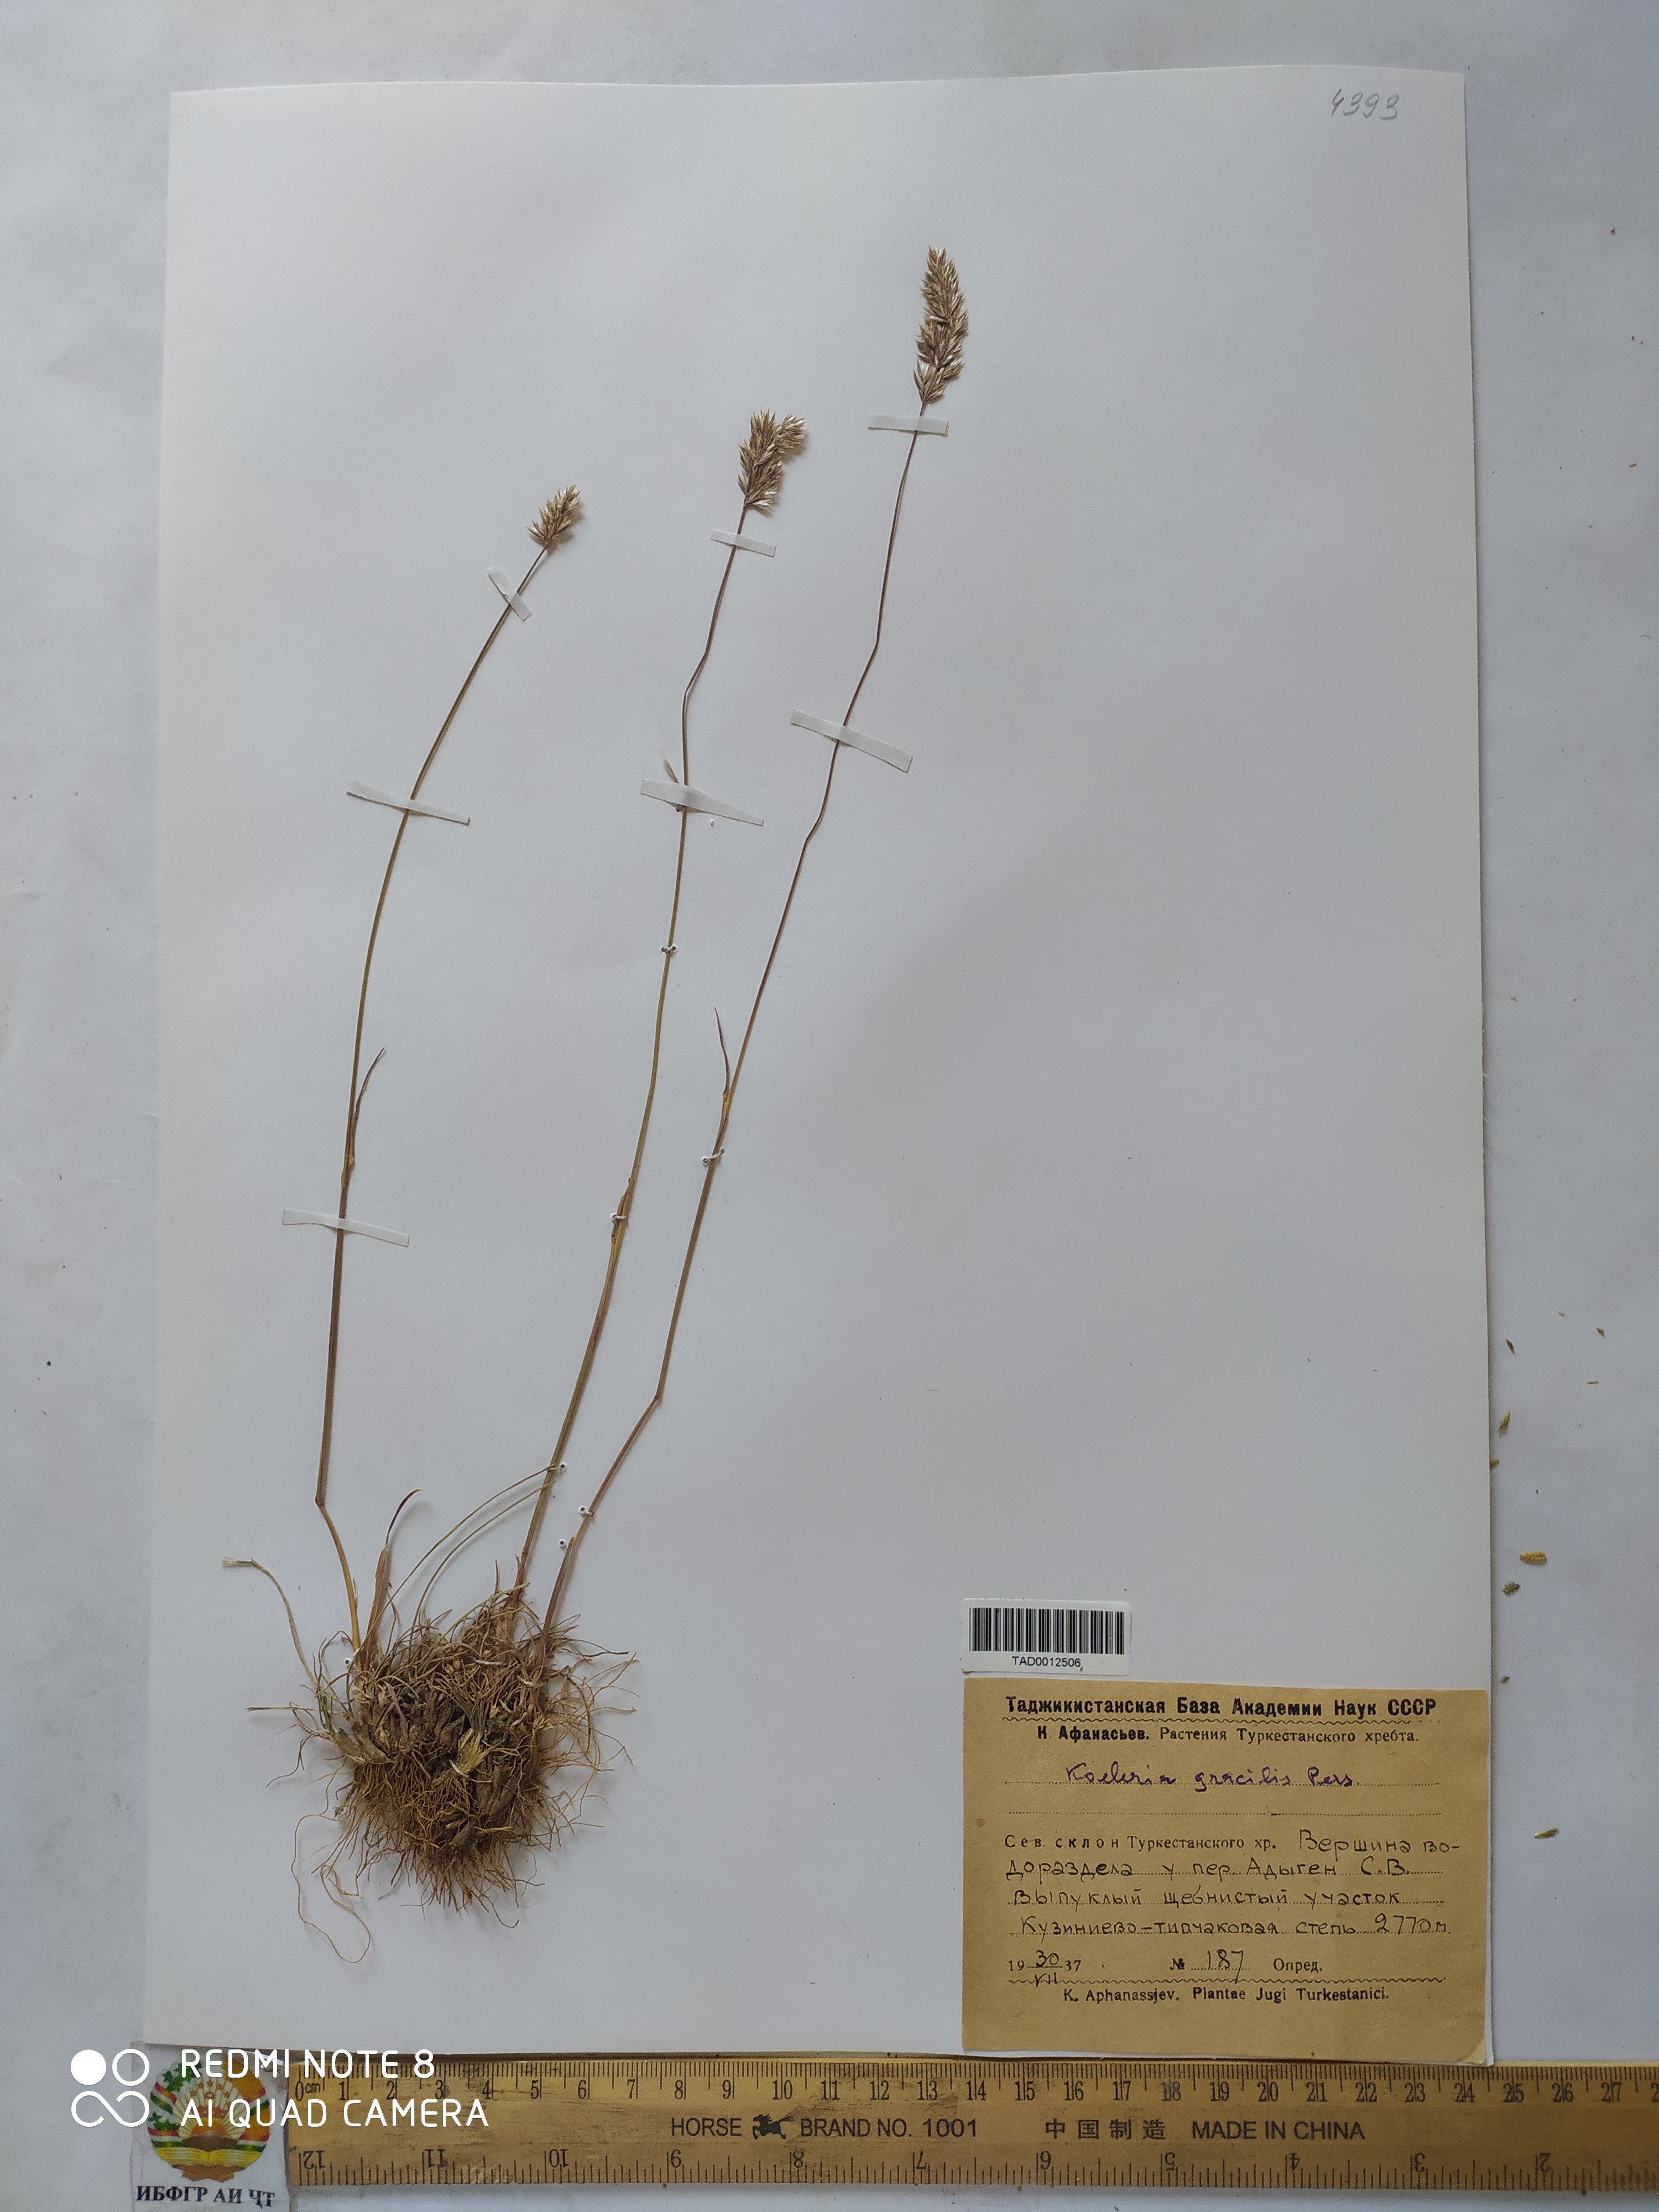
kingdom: Plantae
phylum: Tracheophyta
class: Liliopsida
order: Poales
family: Poaceae
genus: Koeleria
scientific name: Koeleria macrantha
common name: Crested hair-grass
